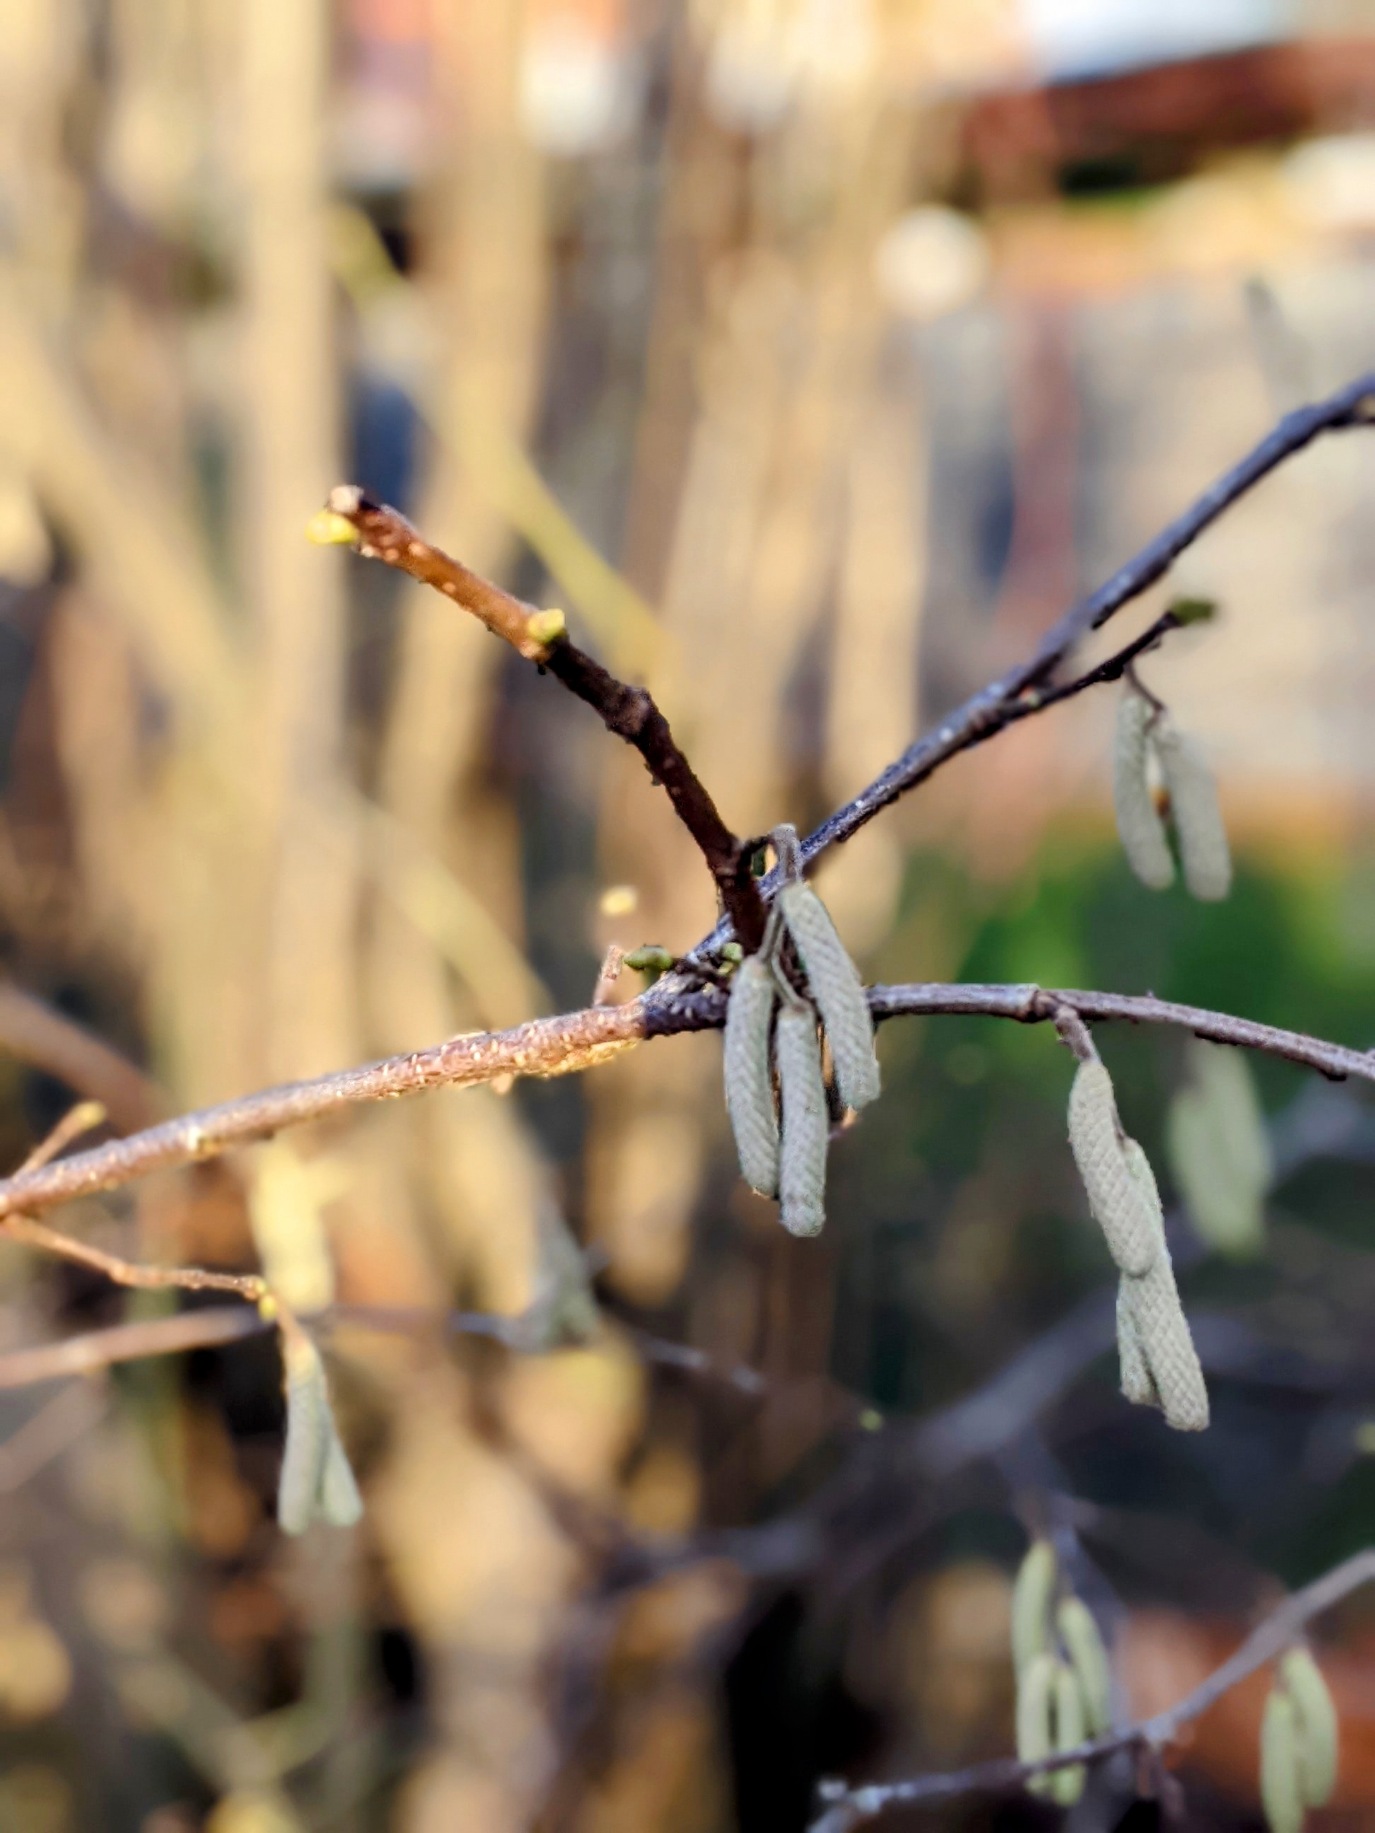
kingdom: Plantae
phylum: Tracheophyta
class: Magnoliopsida
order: Fagales
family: Betulaceae
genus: Corylus
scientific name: Corylus avellana
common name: Hassel
